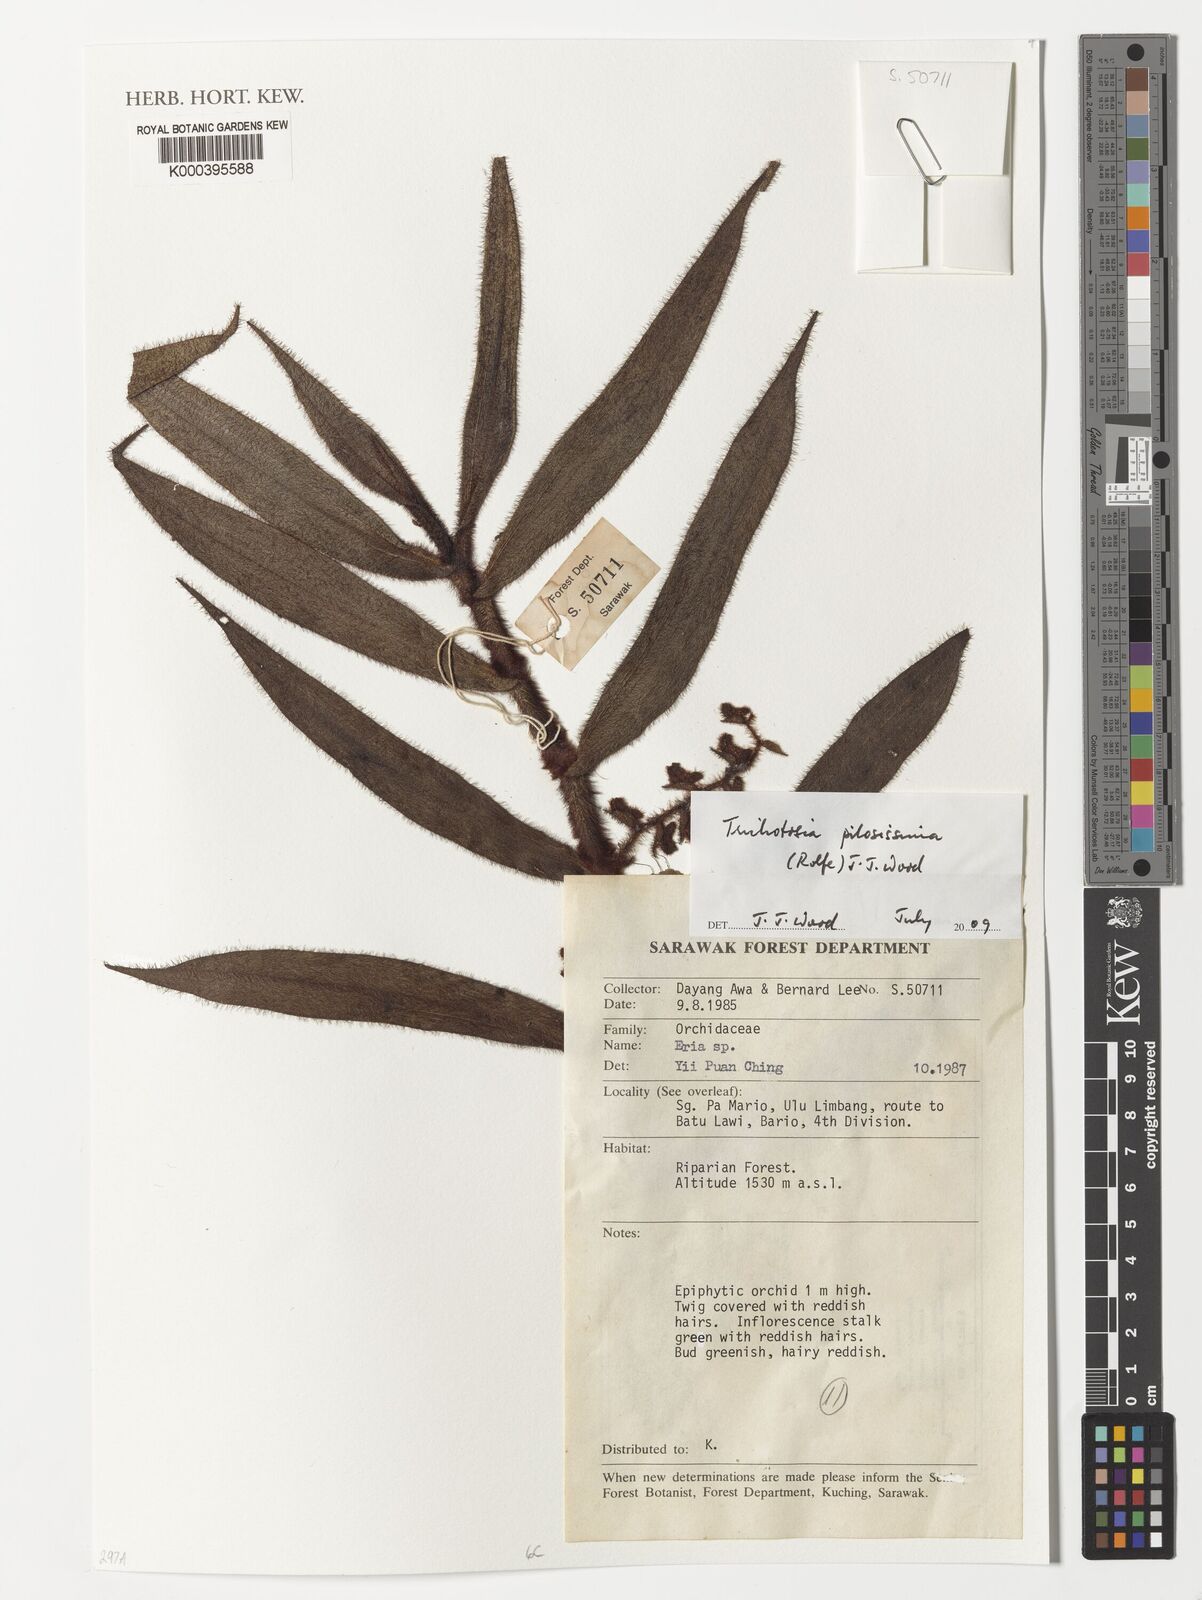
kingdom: Plantae
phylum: Tracheophyta
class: Liliopsida
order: Asparagales
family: Orchidaceae
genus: Trichotosia
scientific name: Trichotosia pilosissima
